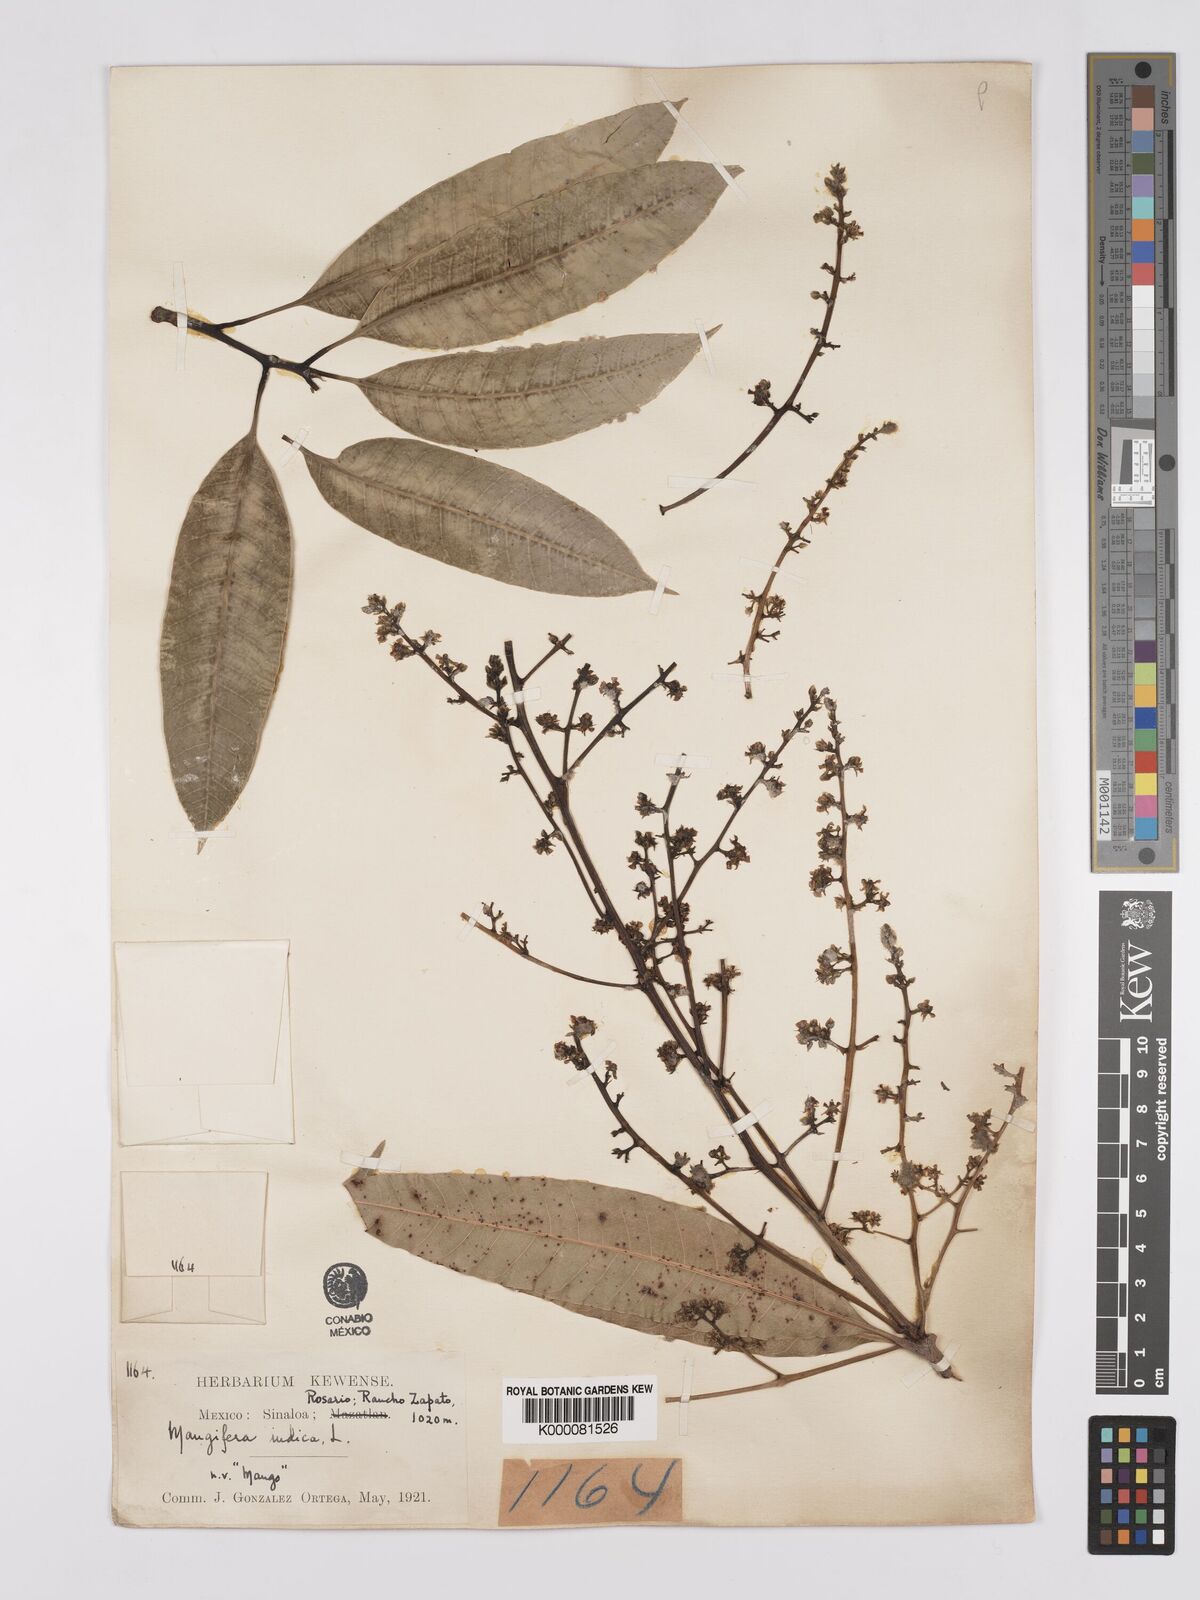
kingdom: Plantae
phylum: Tracheophyta
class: Magnoliopsida
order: Sapindales
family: Anacardiaceae
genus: Mangifera
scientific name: Mangifera indica
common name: Mango
